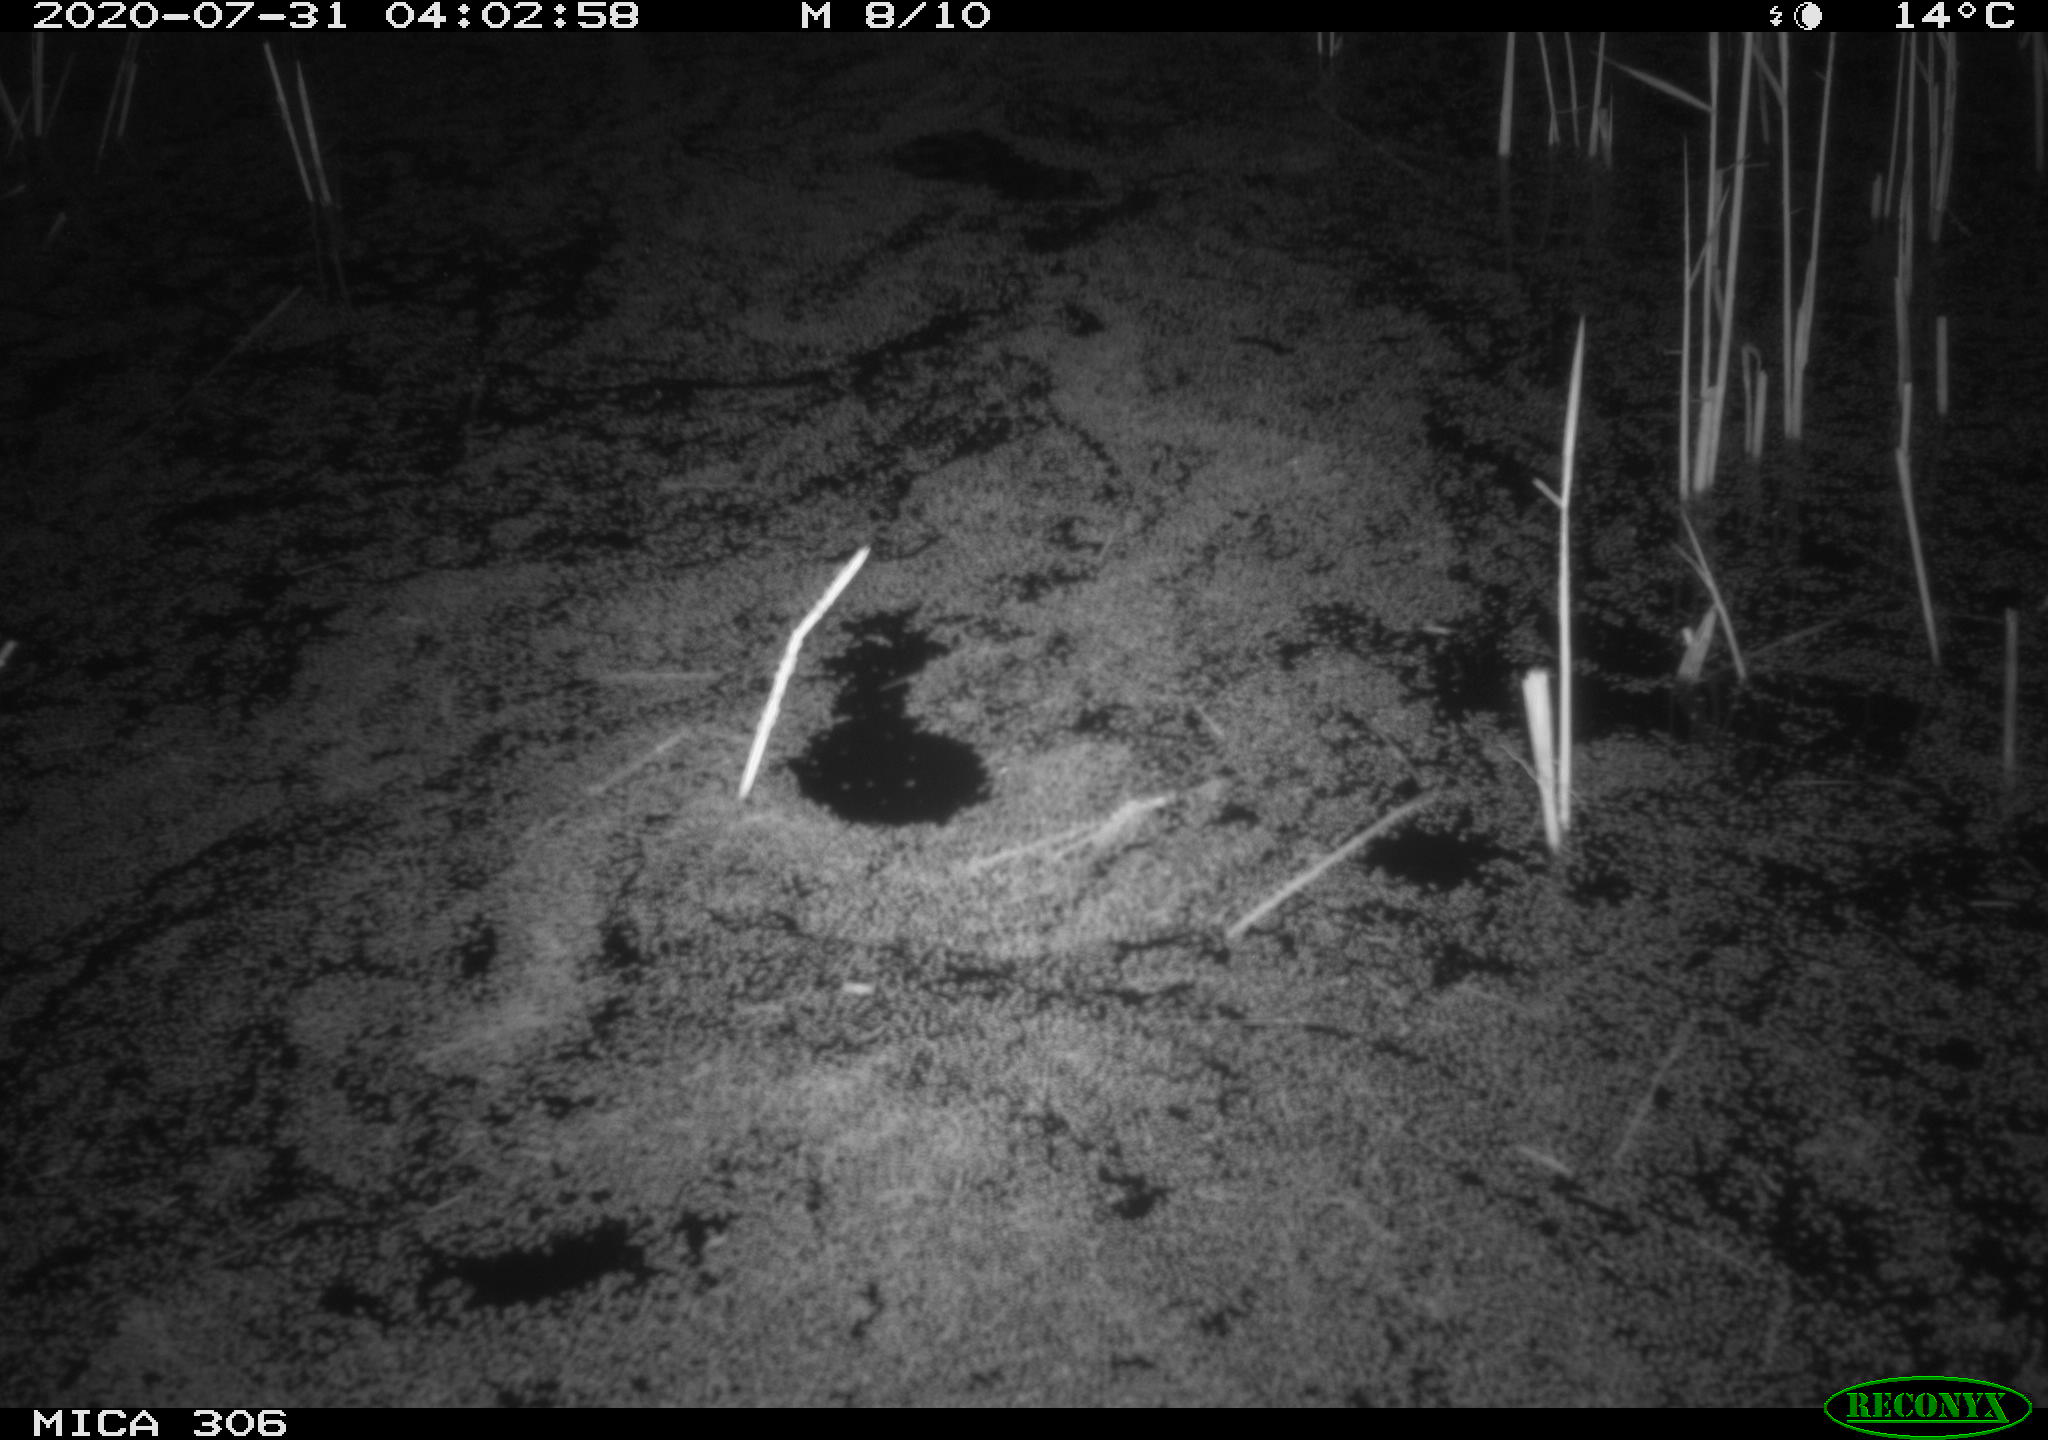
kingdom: Animalia
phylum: Chordata
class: Mammalia
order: Rodentia
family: Cricetidae
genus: Ondatra
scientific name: Ondatra zibethicus
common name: Muskrat
